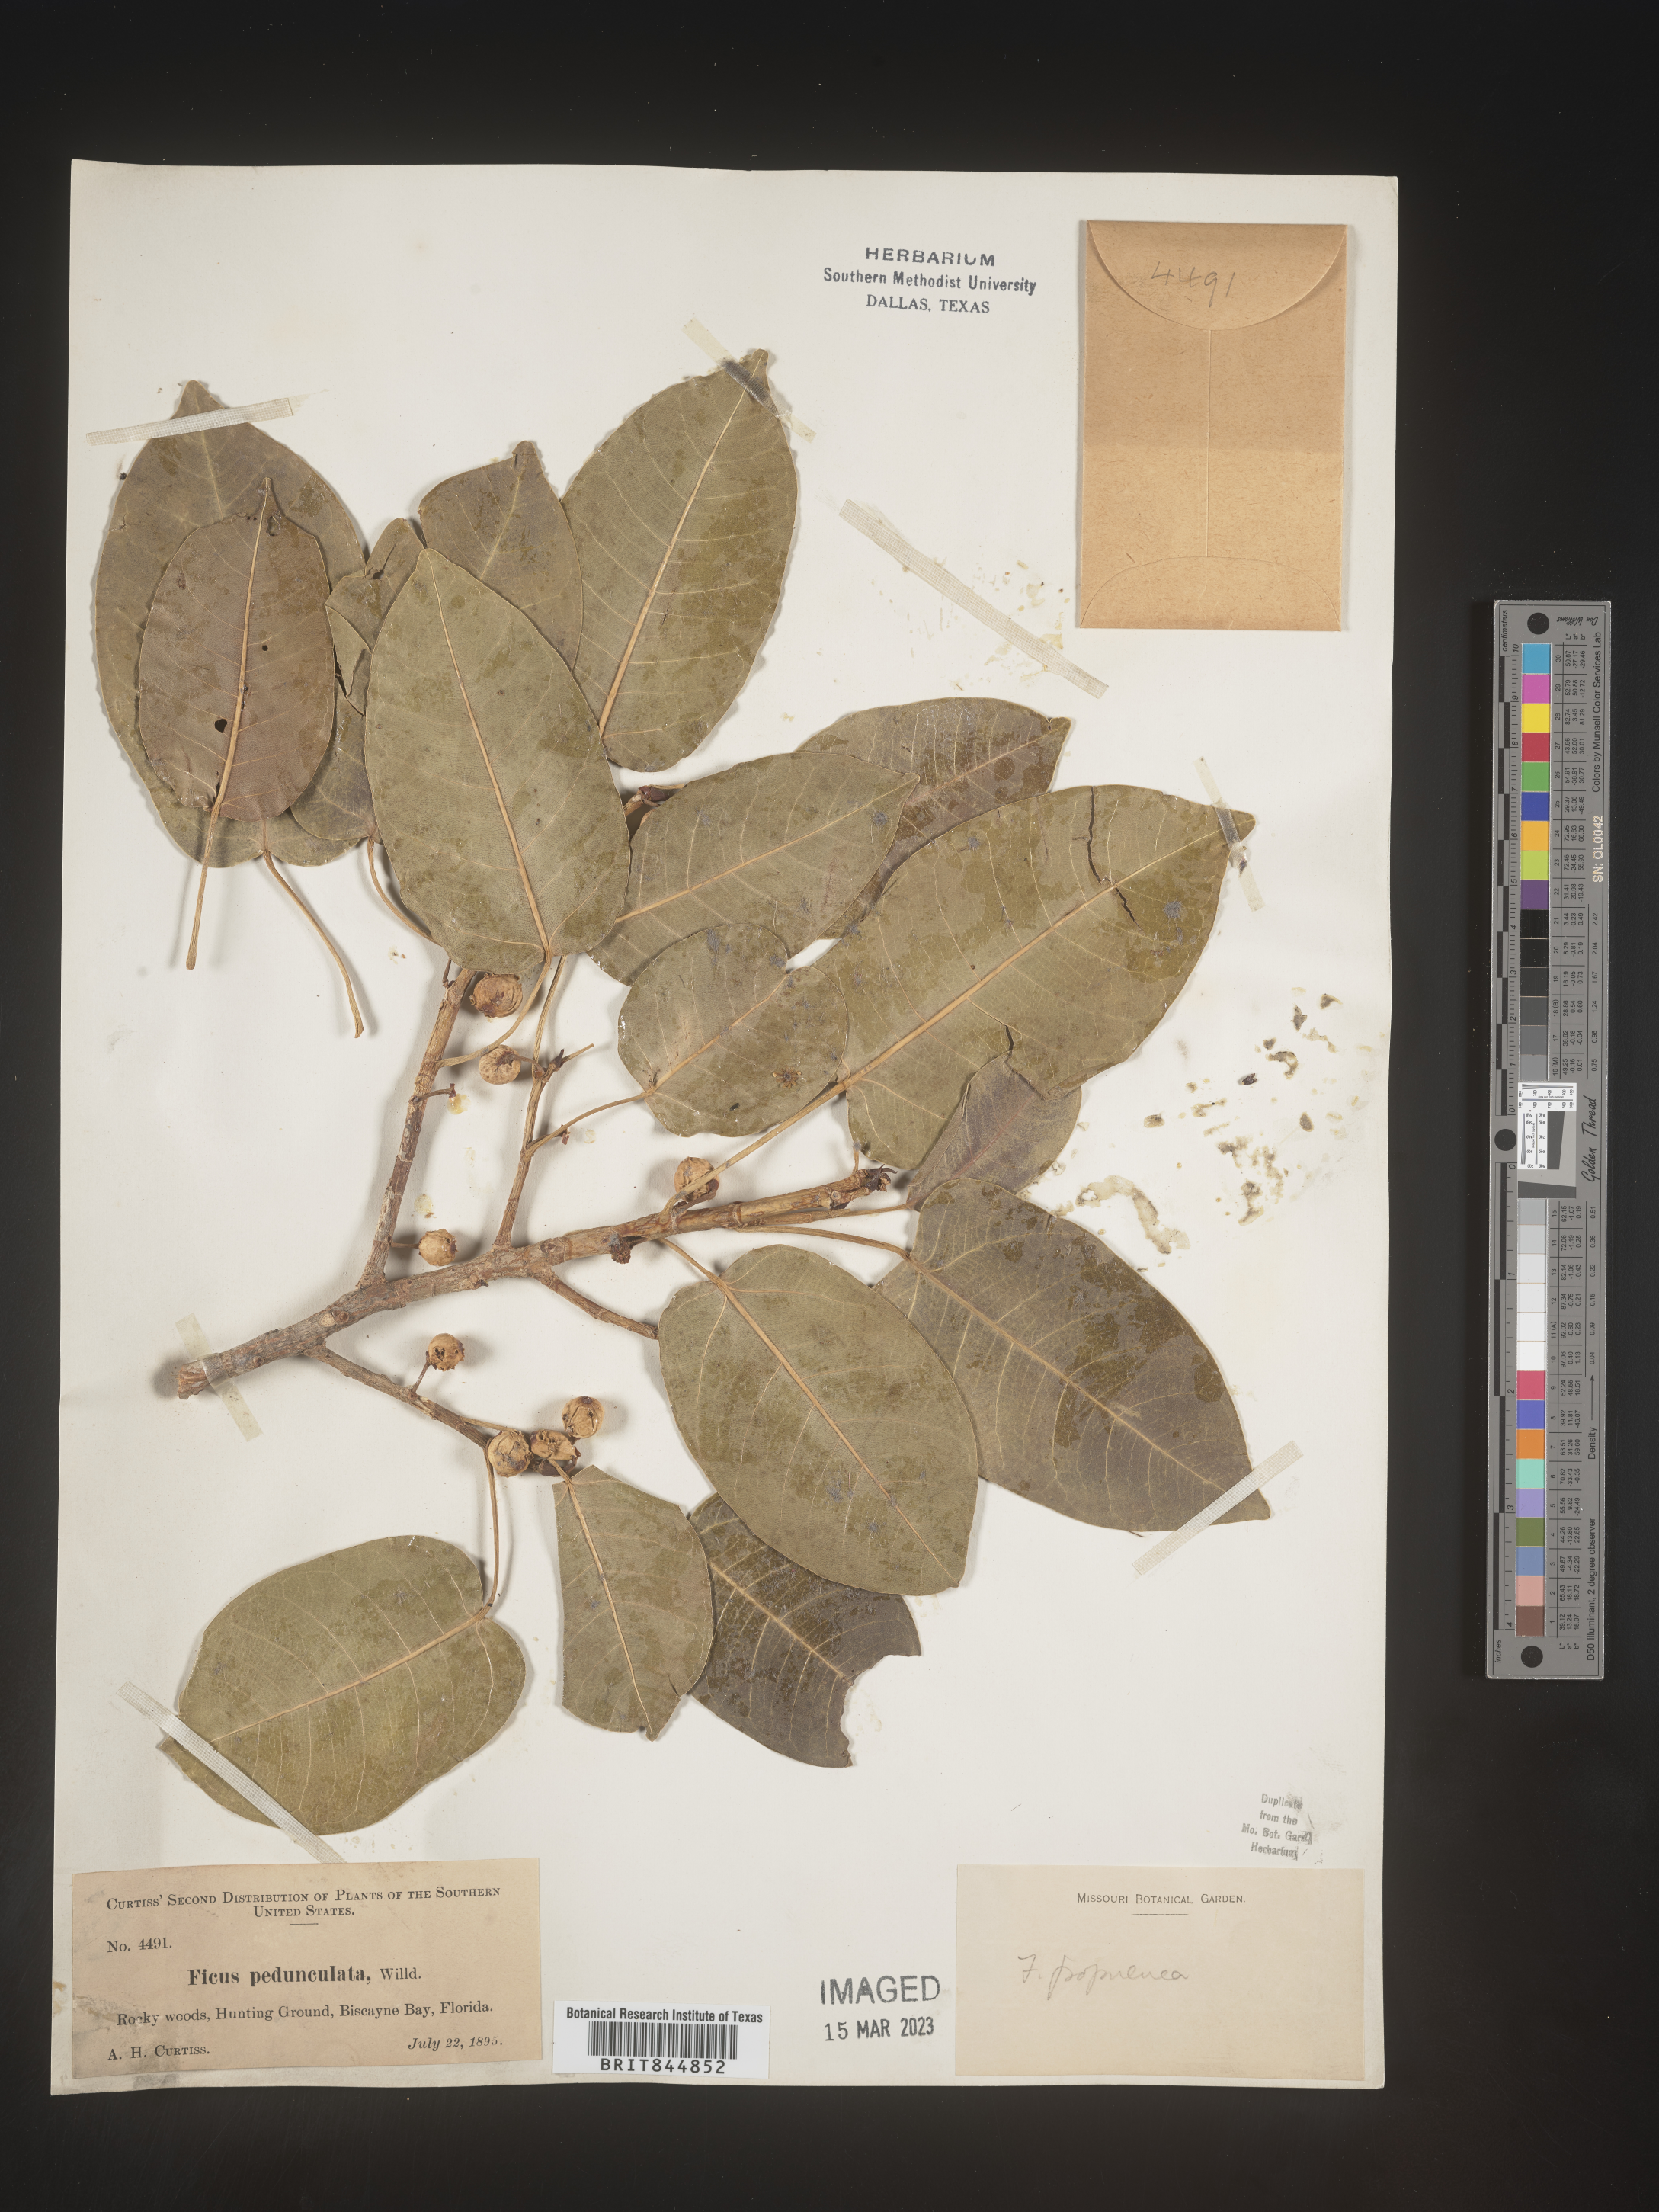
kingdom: Plantae
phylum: Tracheophyta
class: Magnoliopsida
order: Rosales
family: Moraceae
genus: Ficus
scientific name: Ficus
